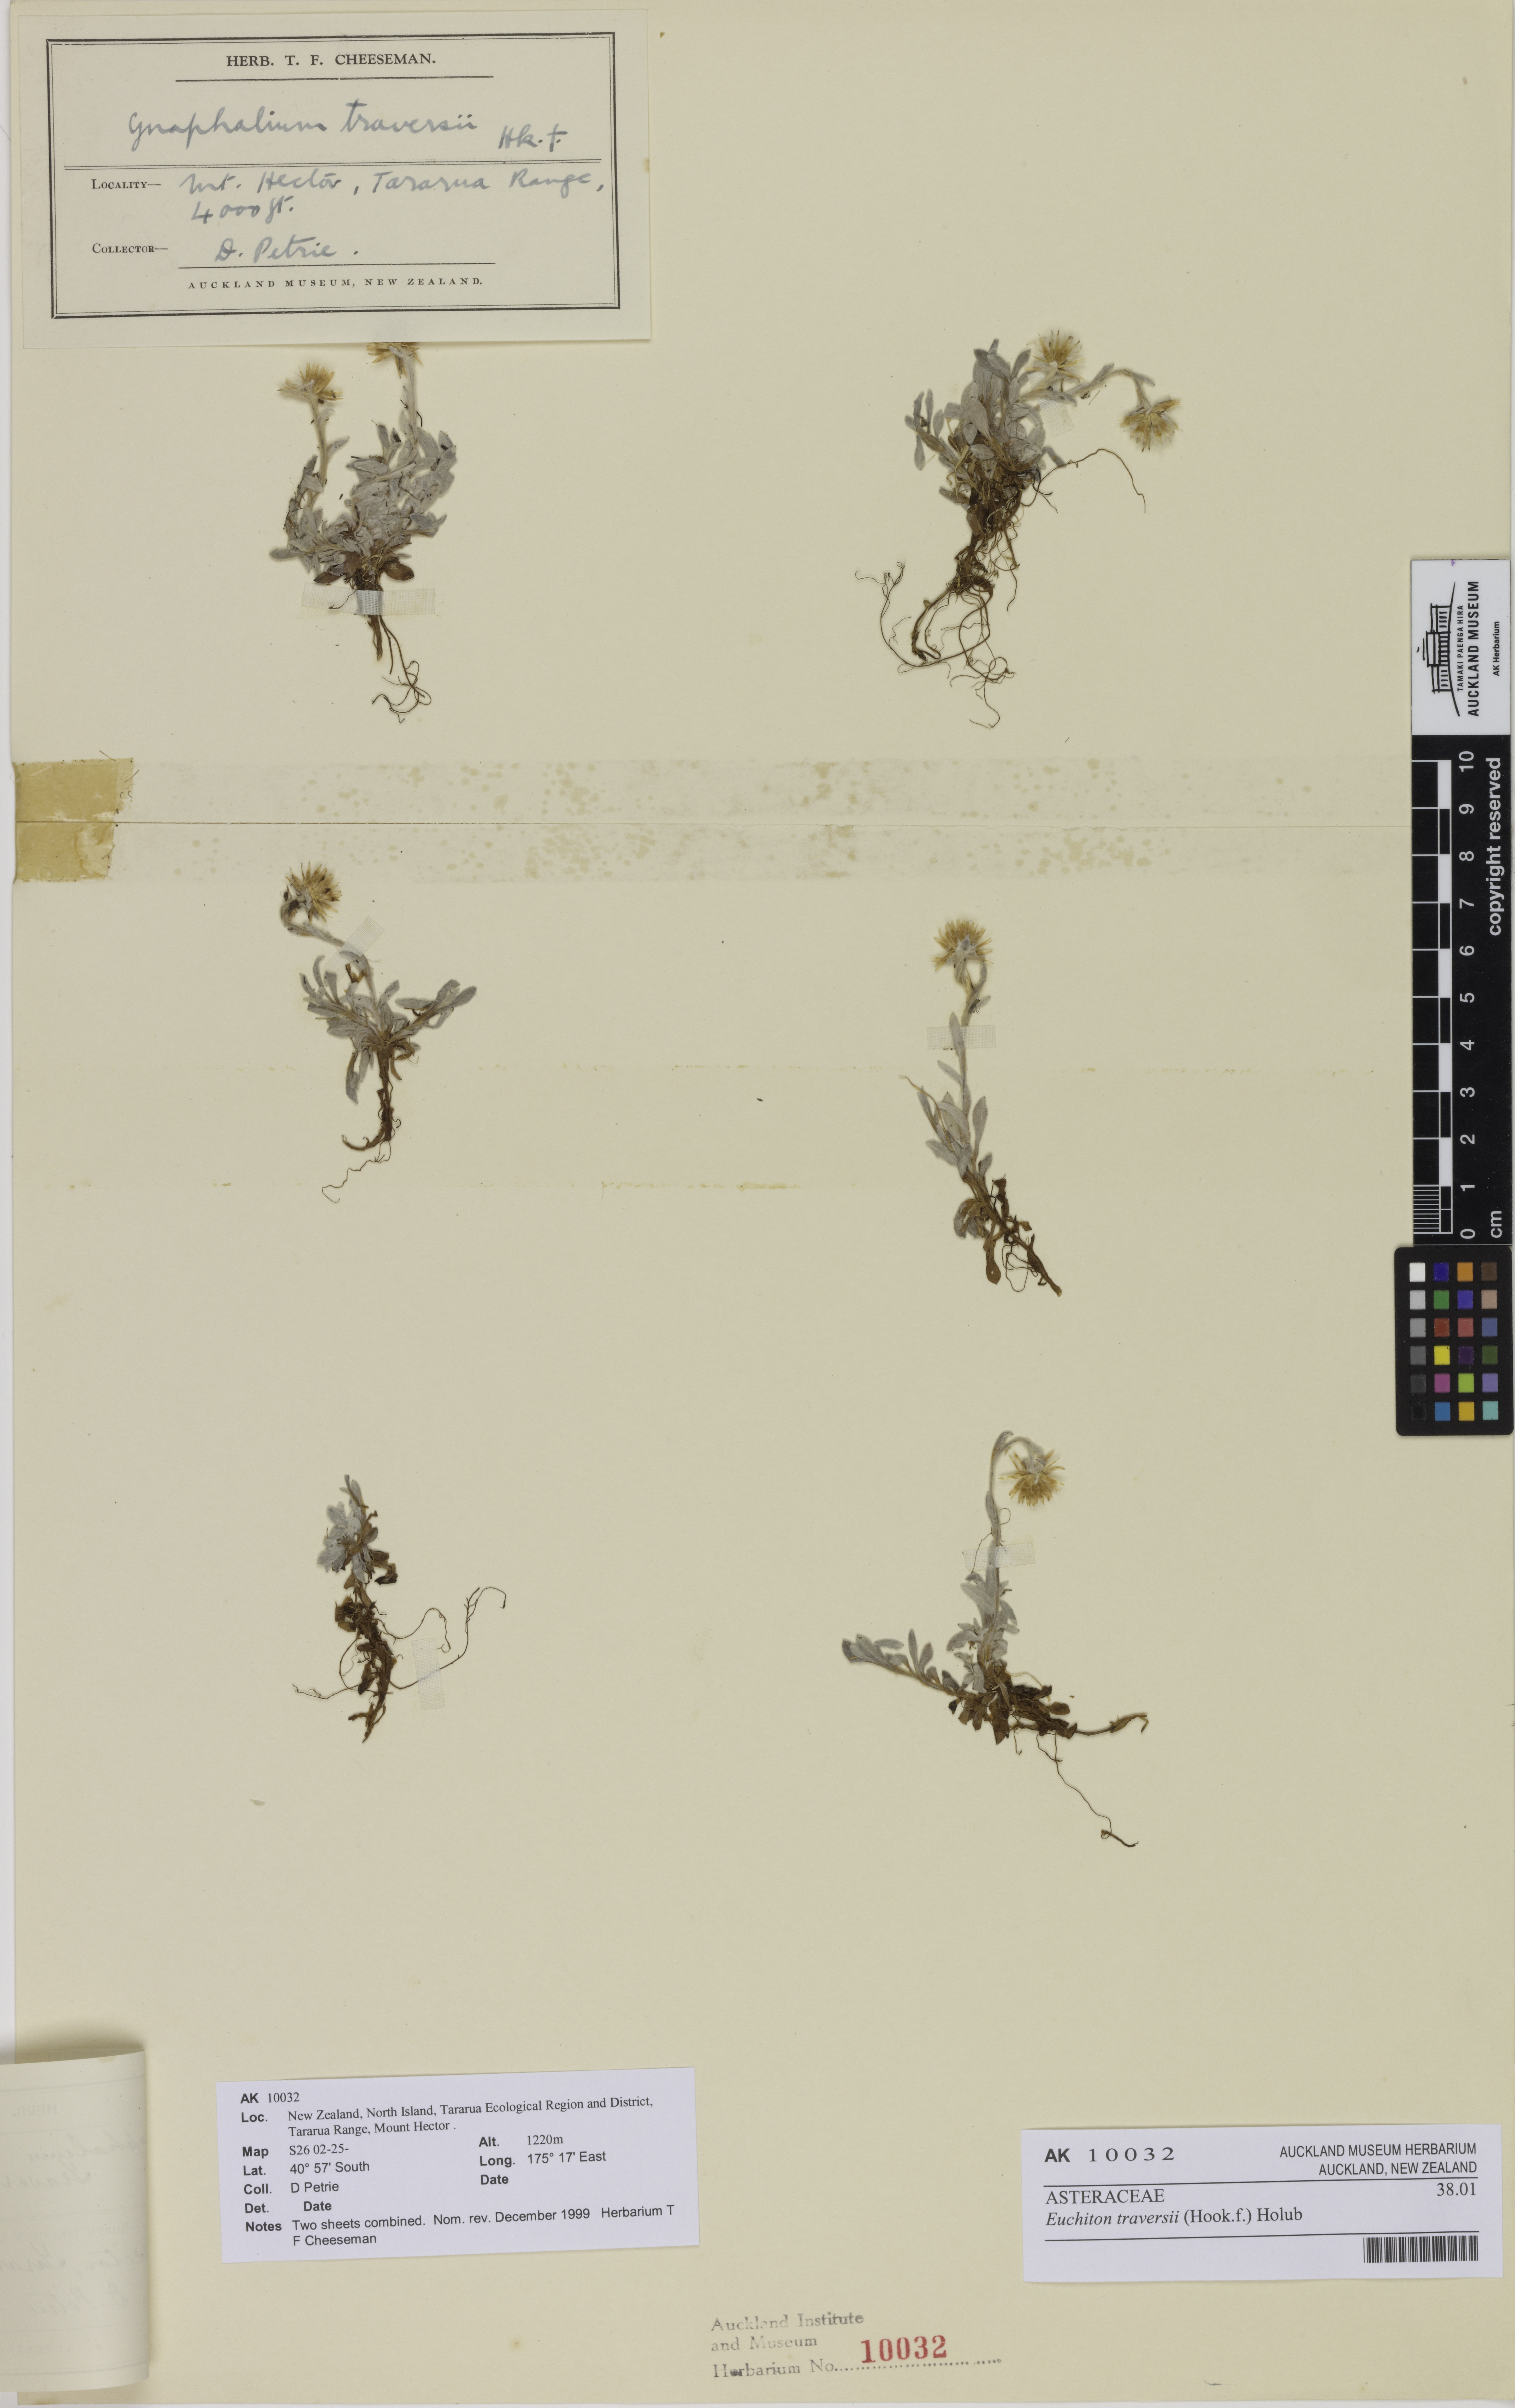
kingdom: Plantae
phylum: Tracheophyta
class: Magnoliopsida
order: Asterales
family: Asteraceae
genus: Euchiton
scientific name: Euchiton traversii
